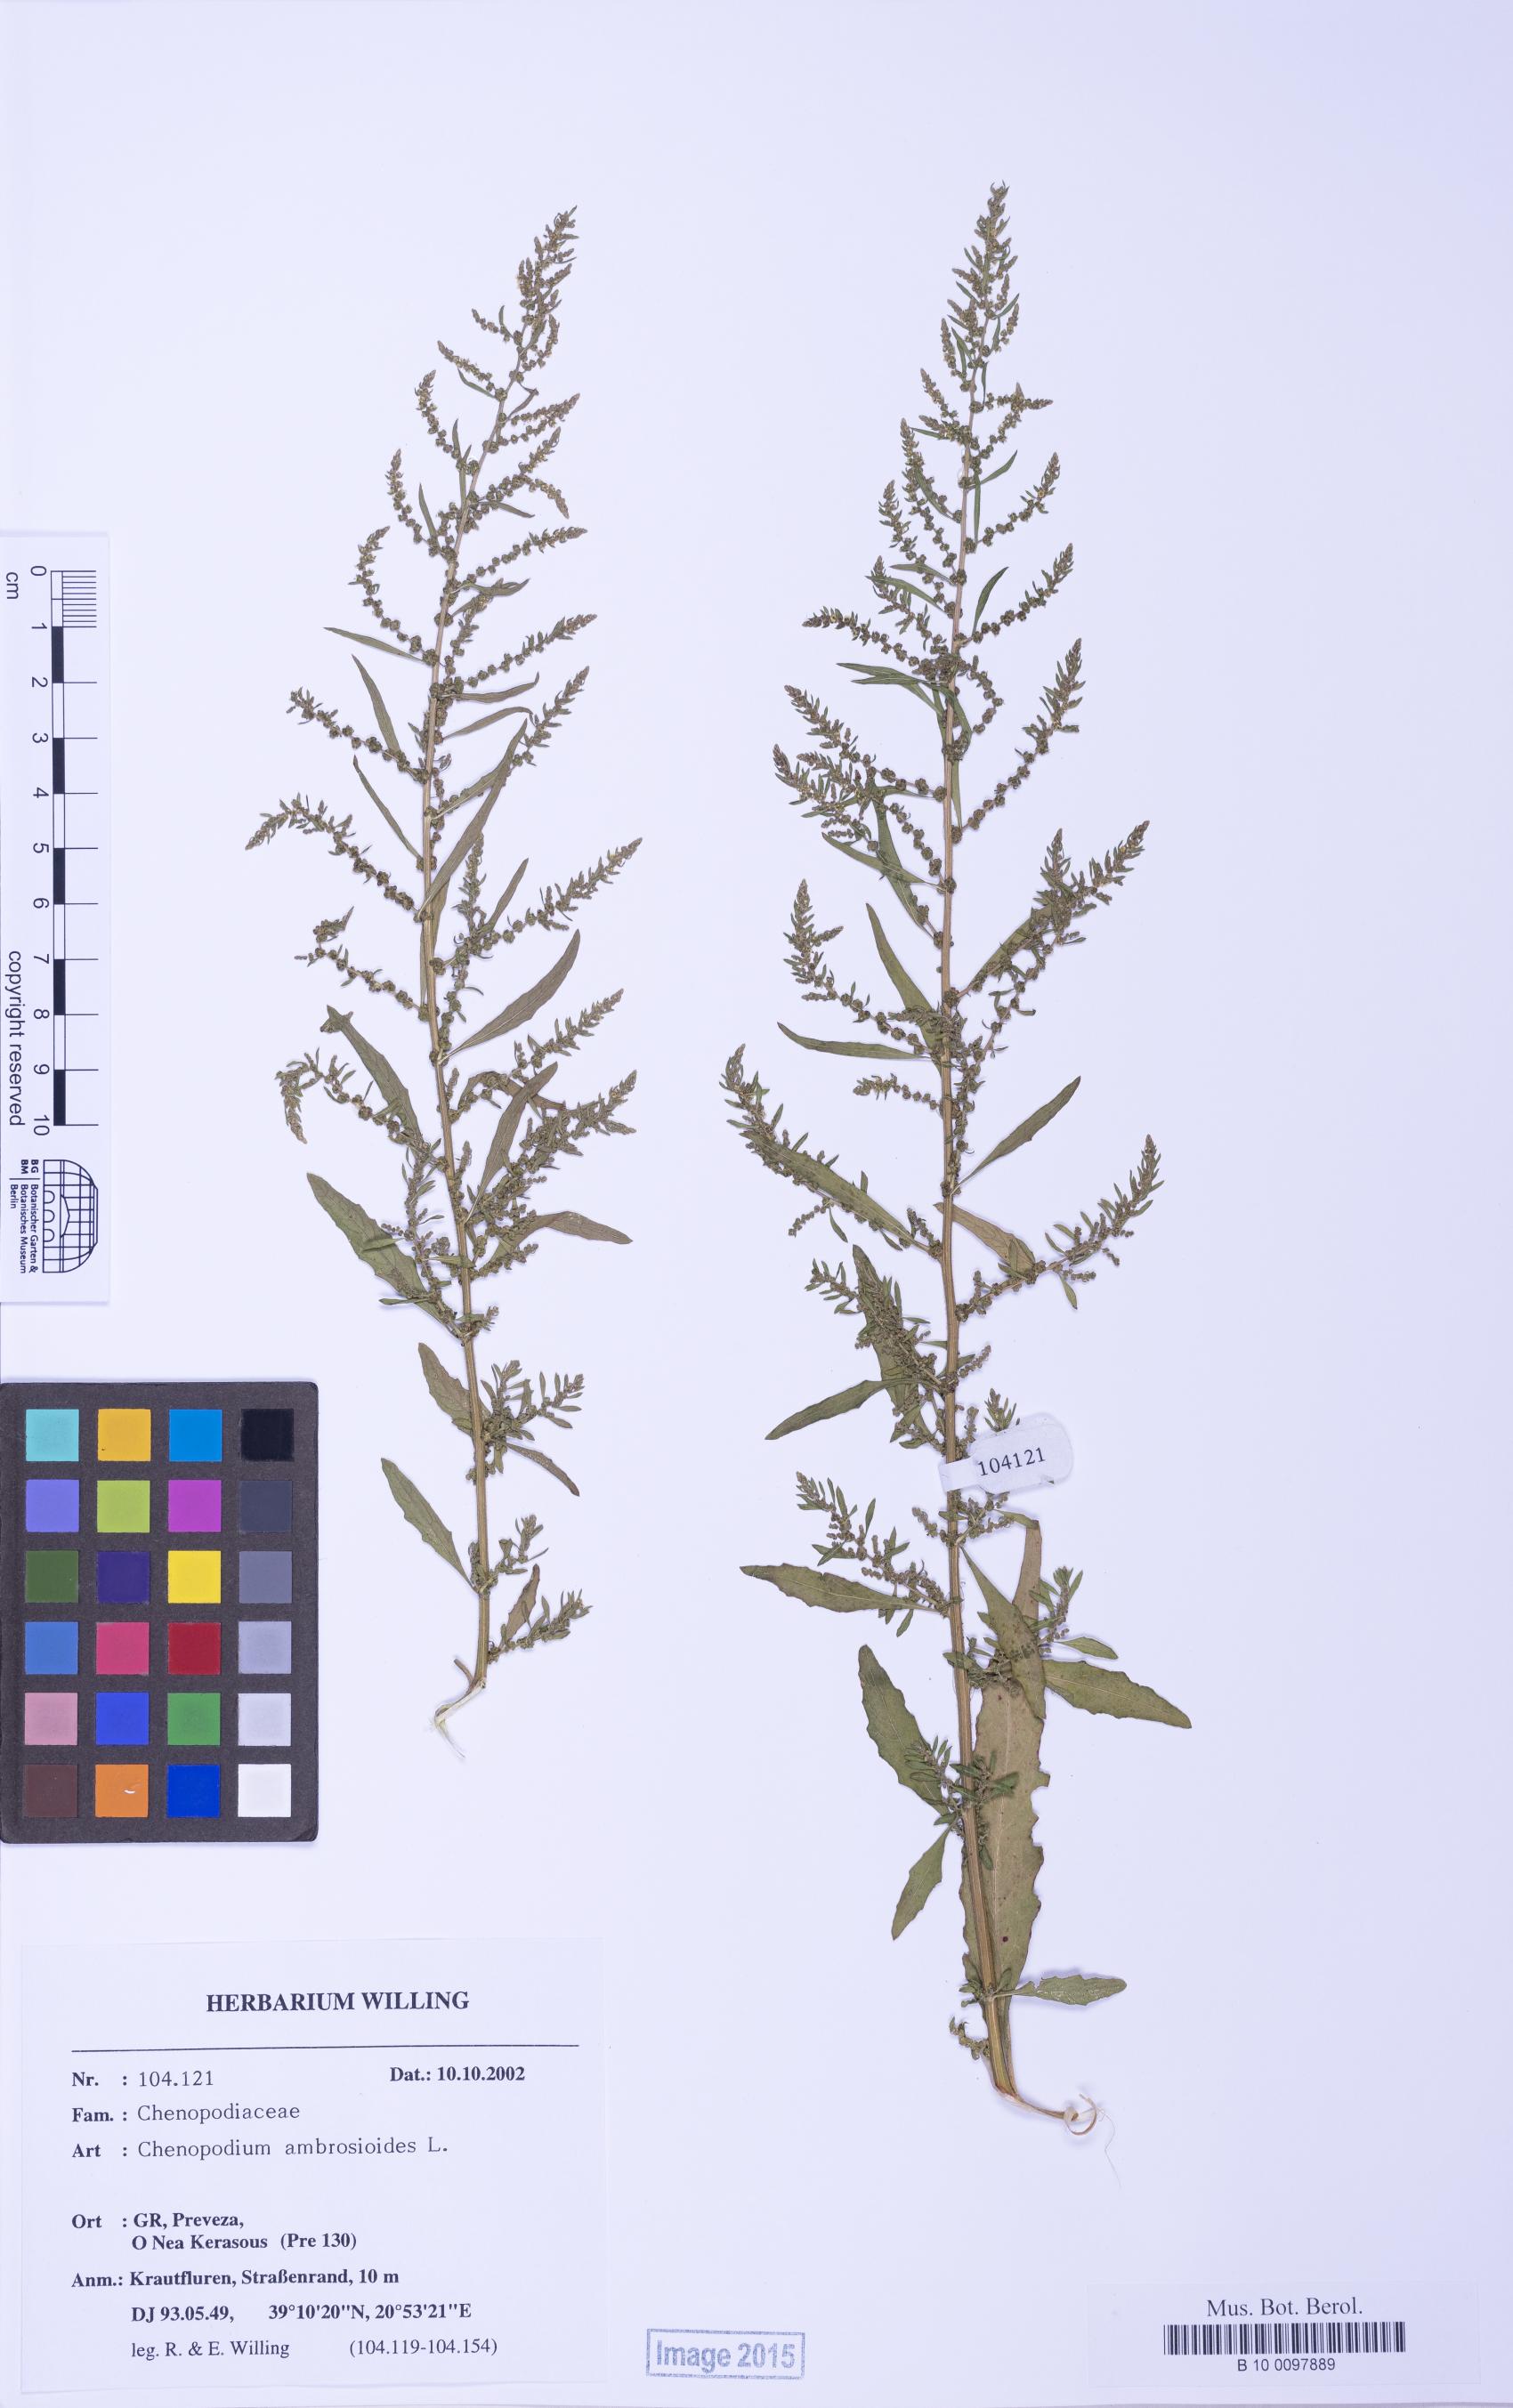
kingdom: Plantae
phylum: Tracheophyta
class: Magnoliopsida
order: Caryophyllales
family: Amaranthaceae
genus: Dysphania
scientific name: Dysphania ambrosioides
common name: Wormseed
